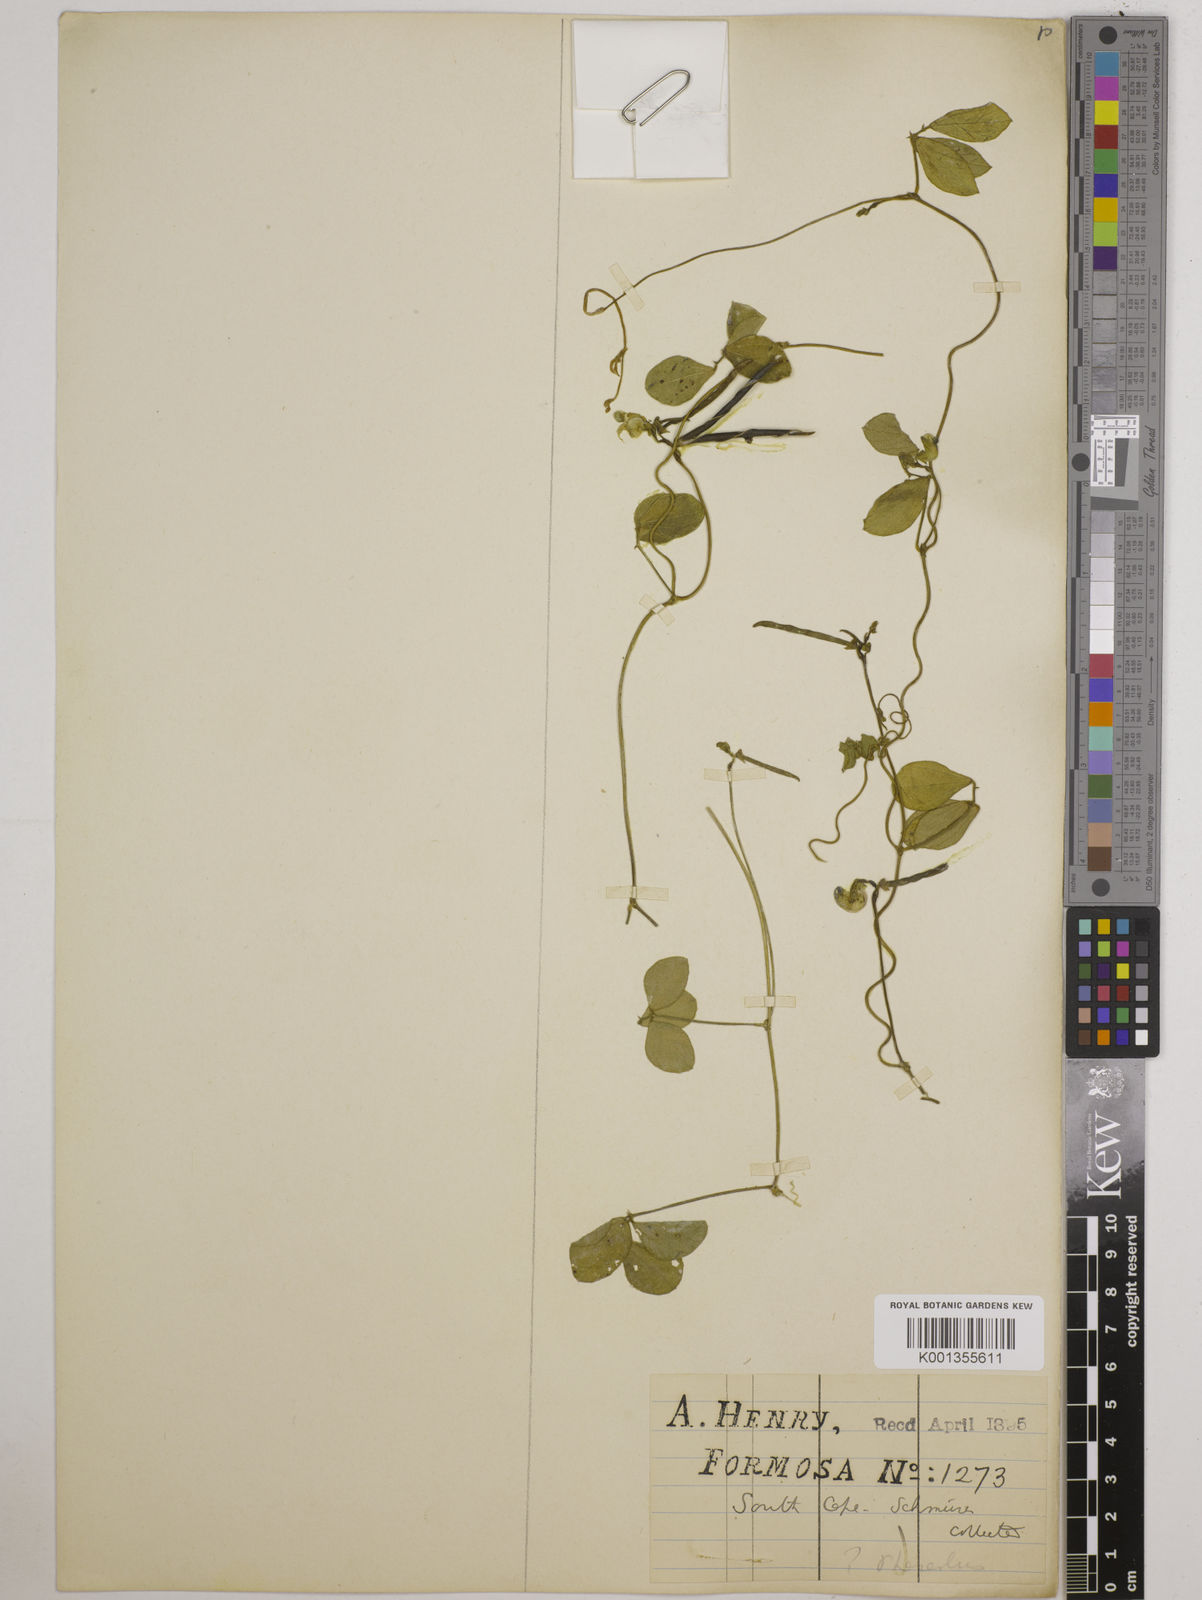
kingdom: Plantae
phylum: Tracheophyta
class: Magnoliopsida
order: Fabales
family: Fabaceae
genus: Vigna
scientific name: Vigna minima
